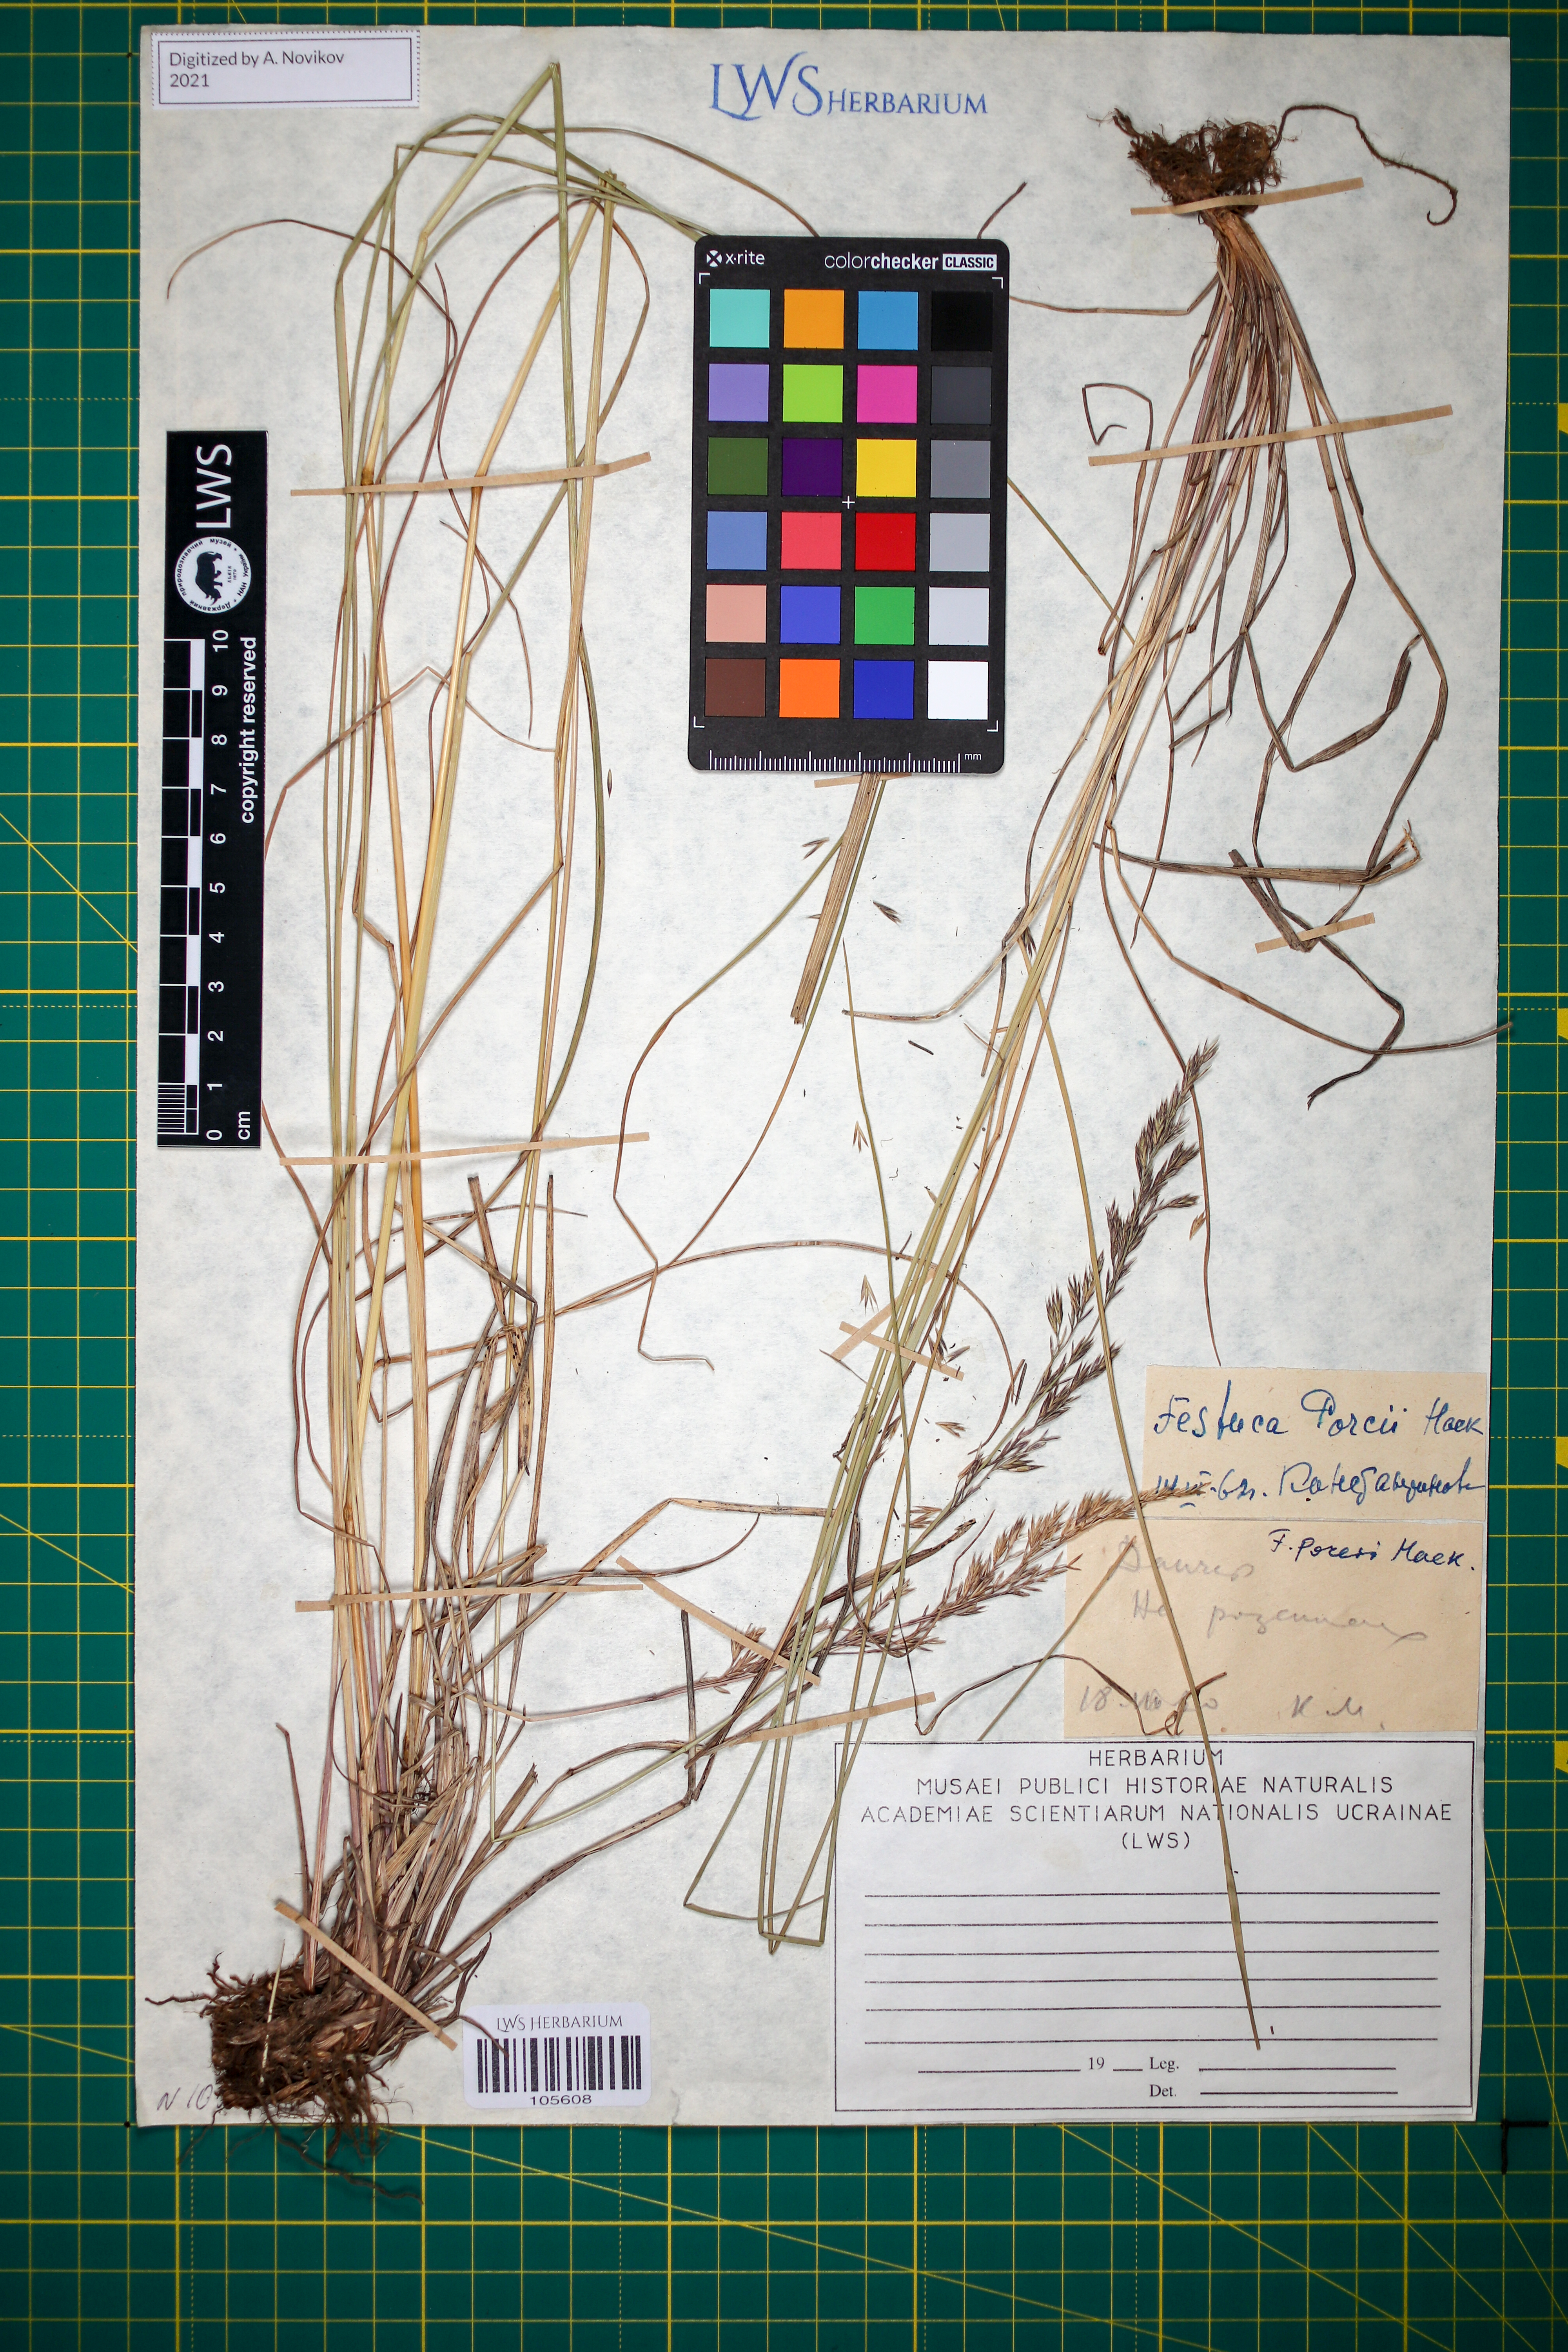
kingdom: Plantae
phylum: Tracheophyta
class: Liliopsida
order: Poales
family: Poaceae
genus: Festuca
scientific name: Festuca porcii
